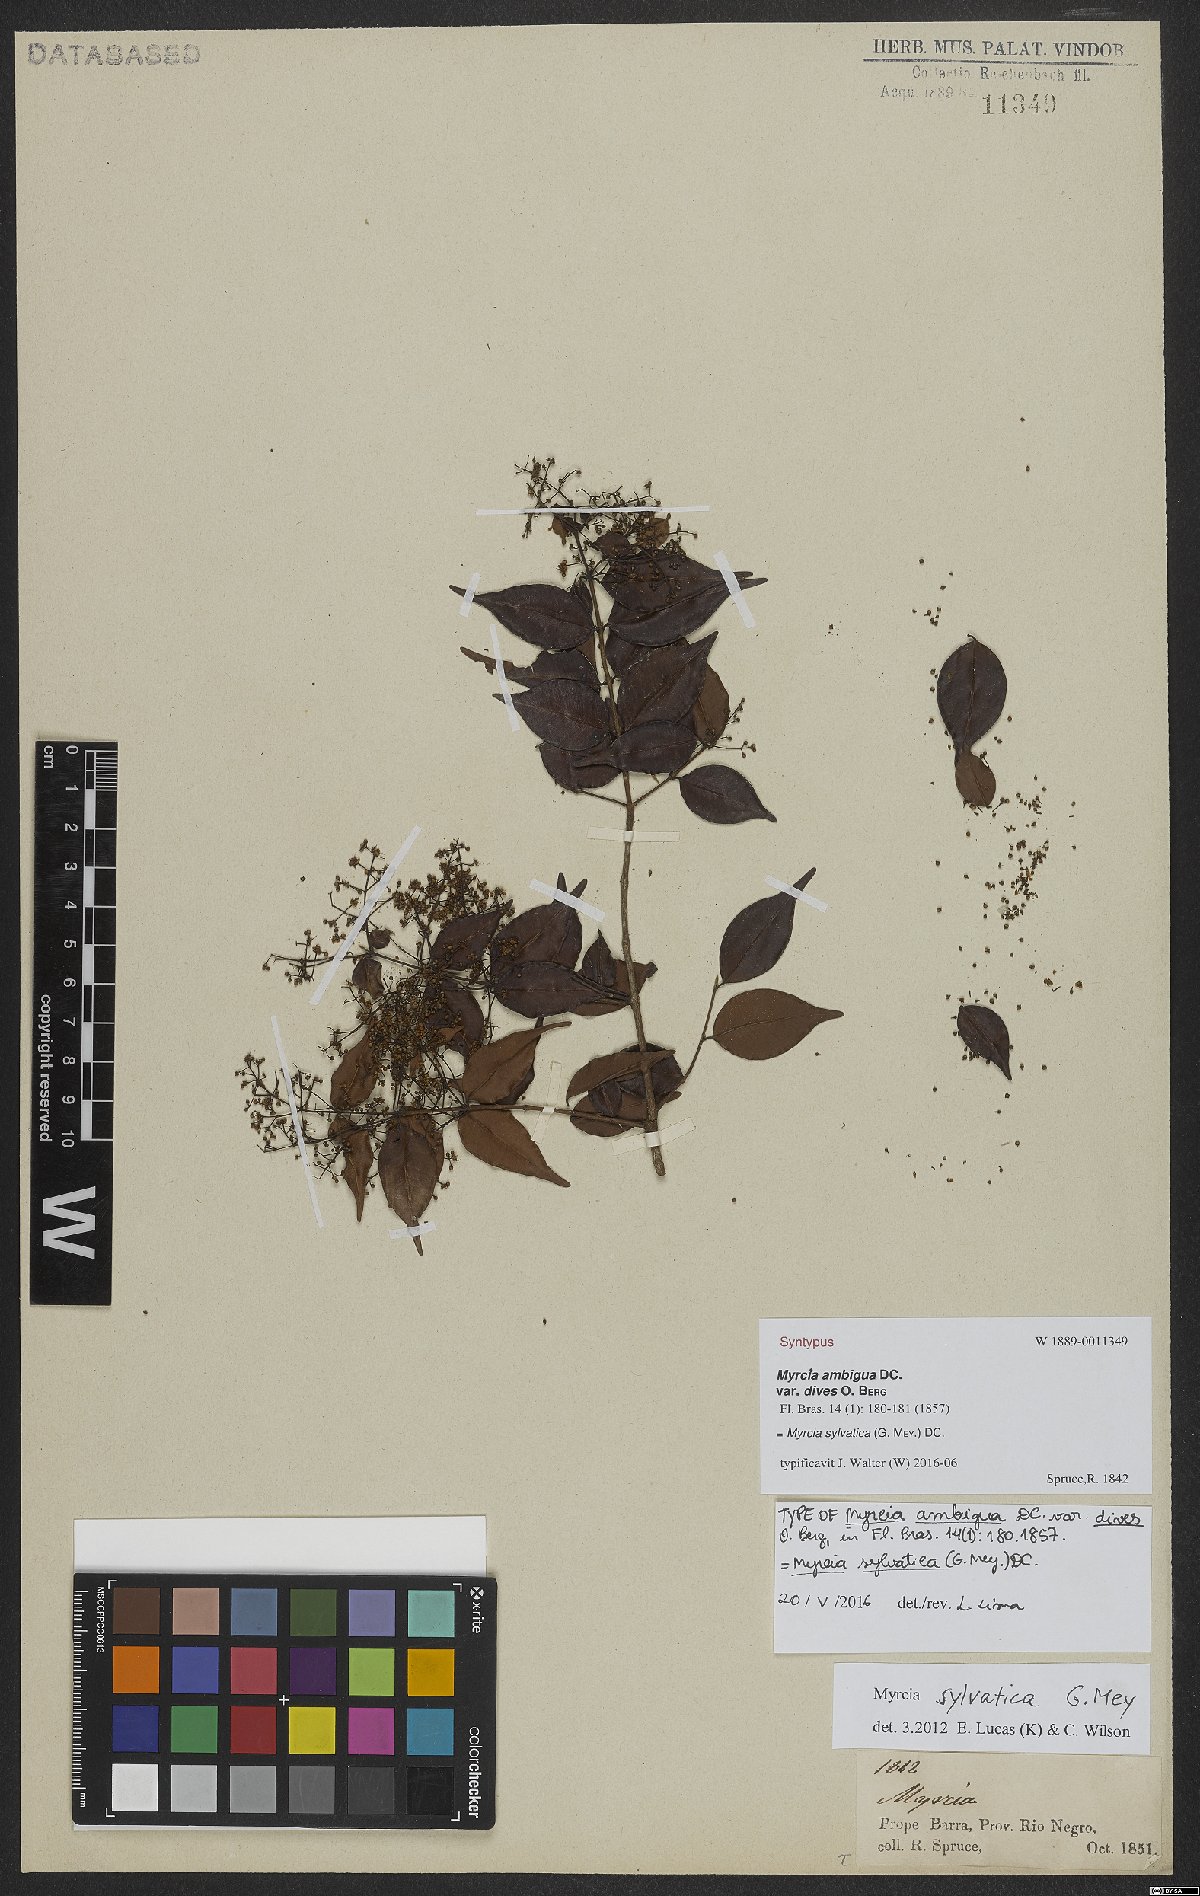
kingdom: Plantae
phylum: Tracheophyta
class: Magnoliopsida
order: Myrtales
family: Myrtaceae
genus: Myrcia
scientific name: Myrcia sylvatica
